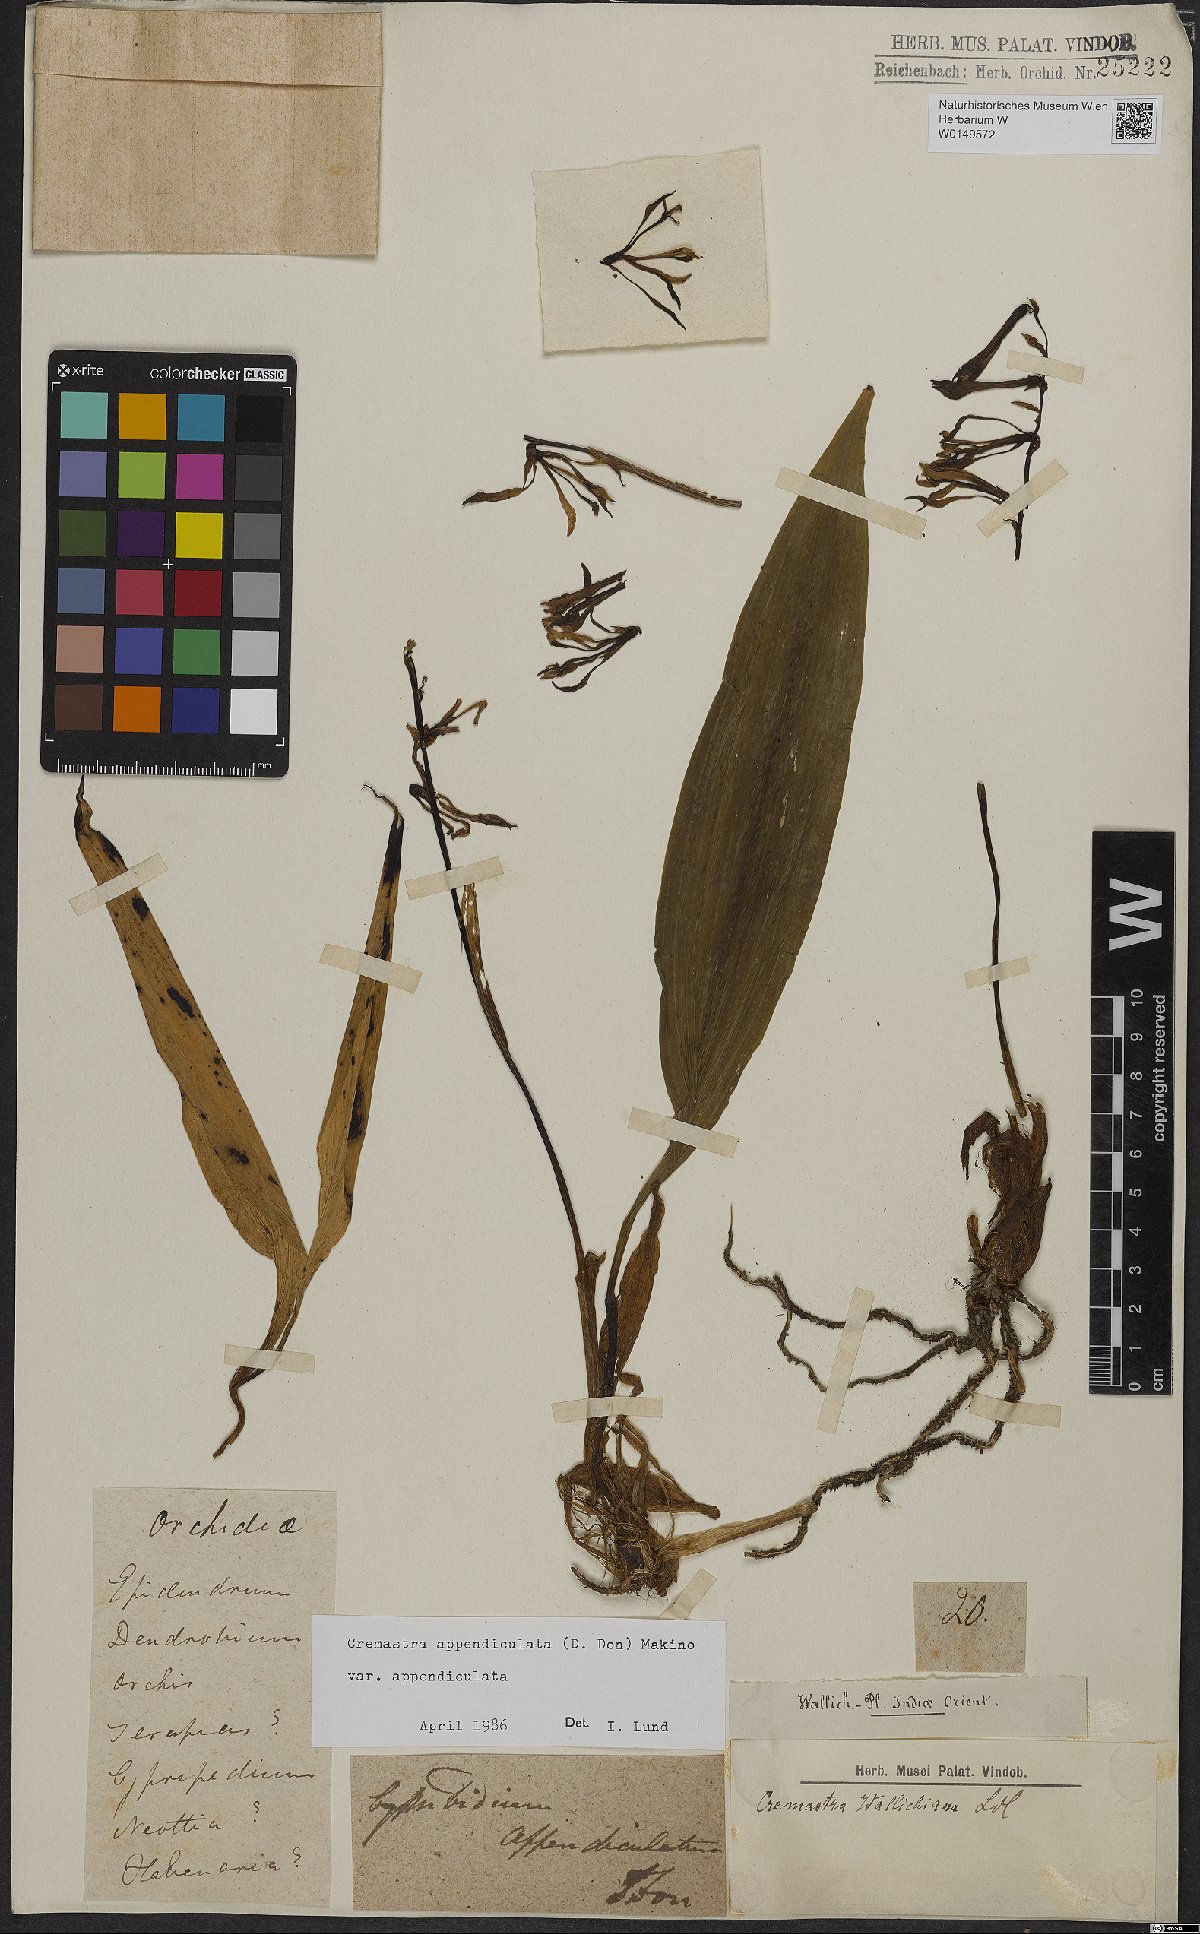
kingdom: Plantae
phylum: Tracheophyta
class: Liliopsida
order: Asparagales
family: Orchidaceae
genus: Cremastra
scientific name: Cremastra appendiculata
